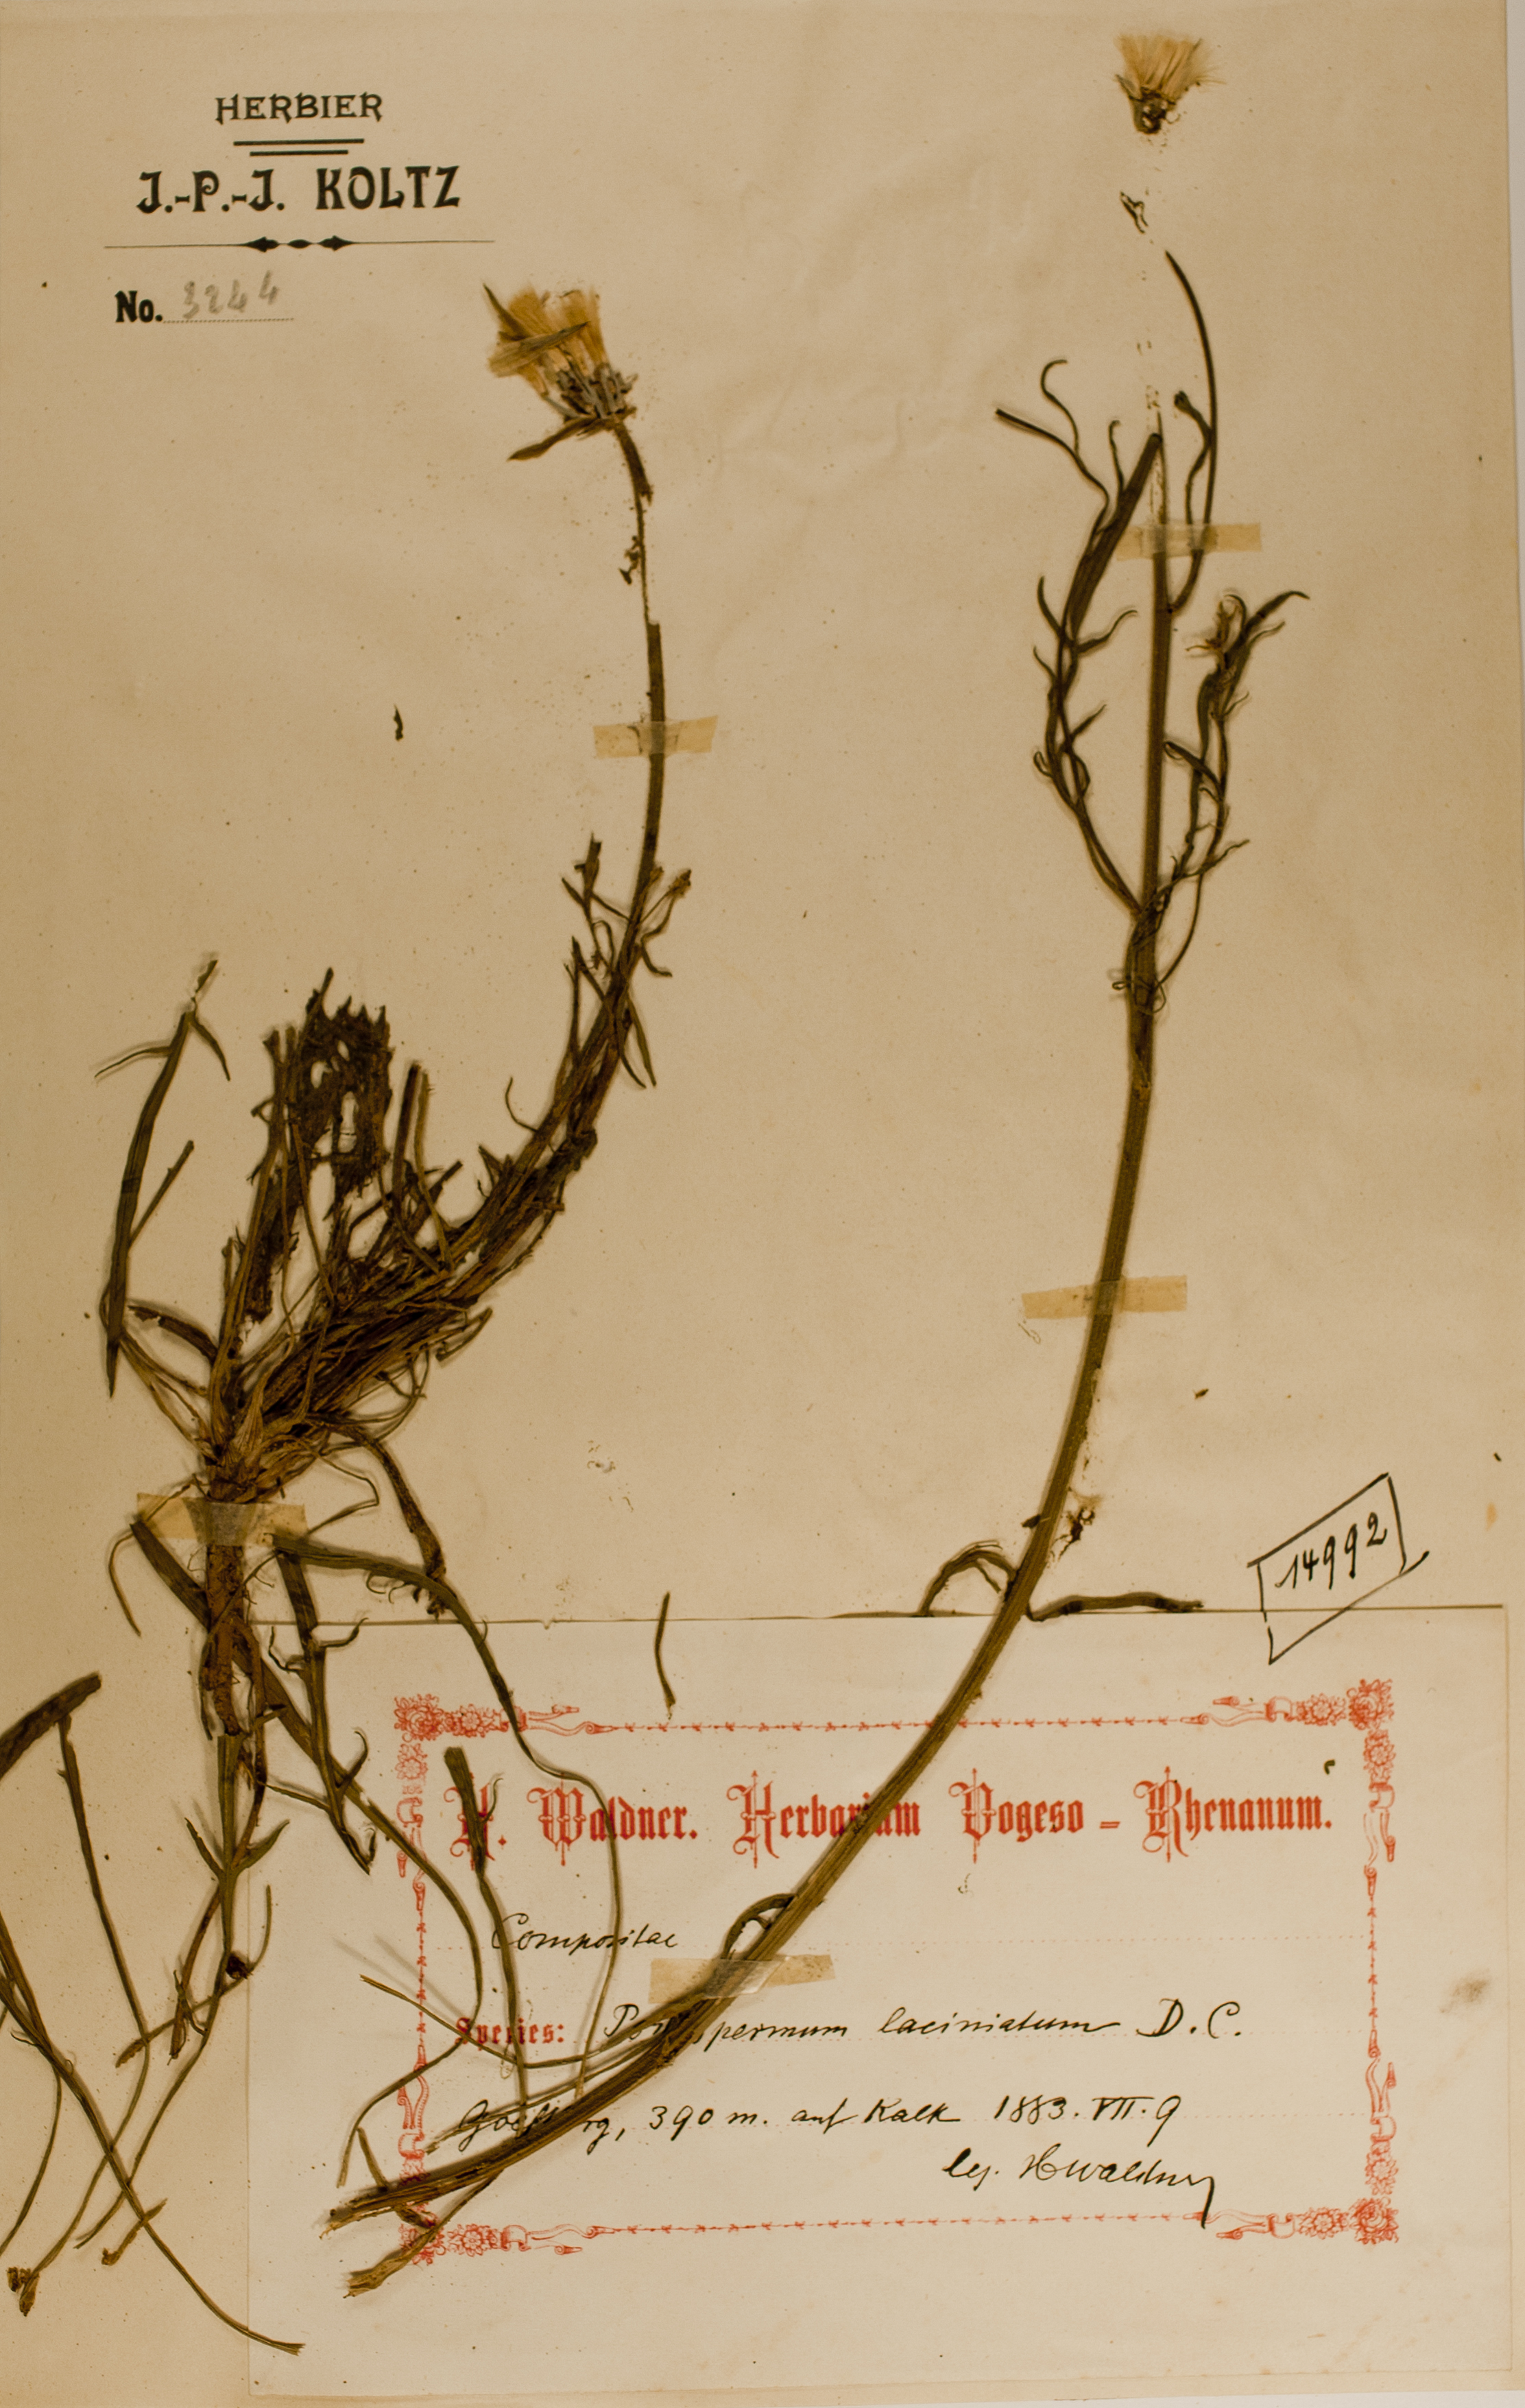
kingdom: Plantae
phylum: Tracheophyta
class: Magnoliopsida
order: Asterales
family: Asteraceae
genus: Scorzonera
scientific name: Scorzonera laciniata
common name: Cutleaf vipergrass
